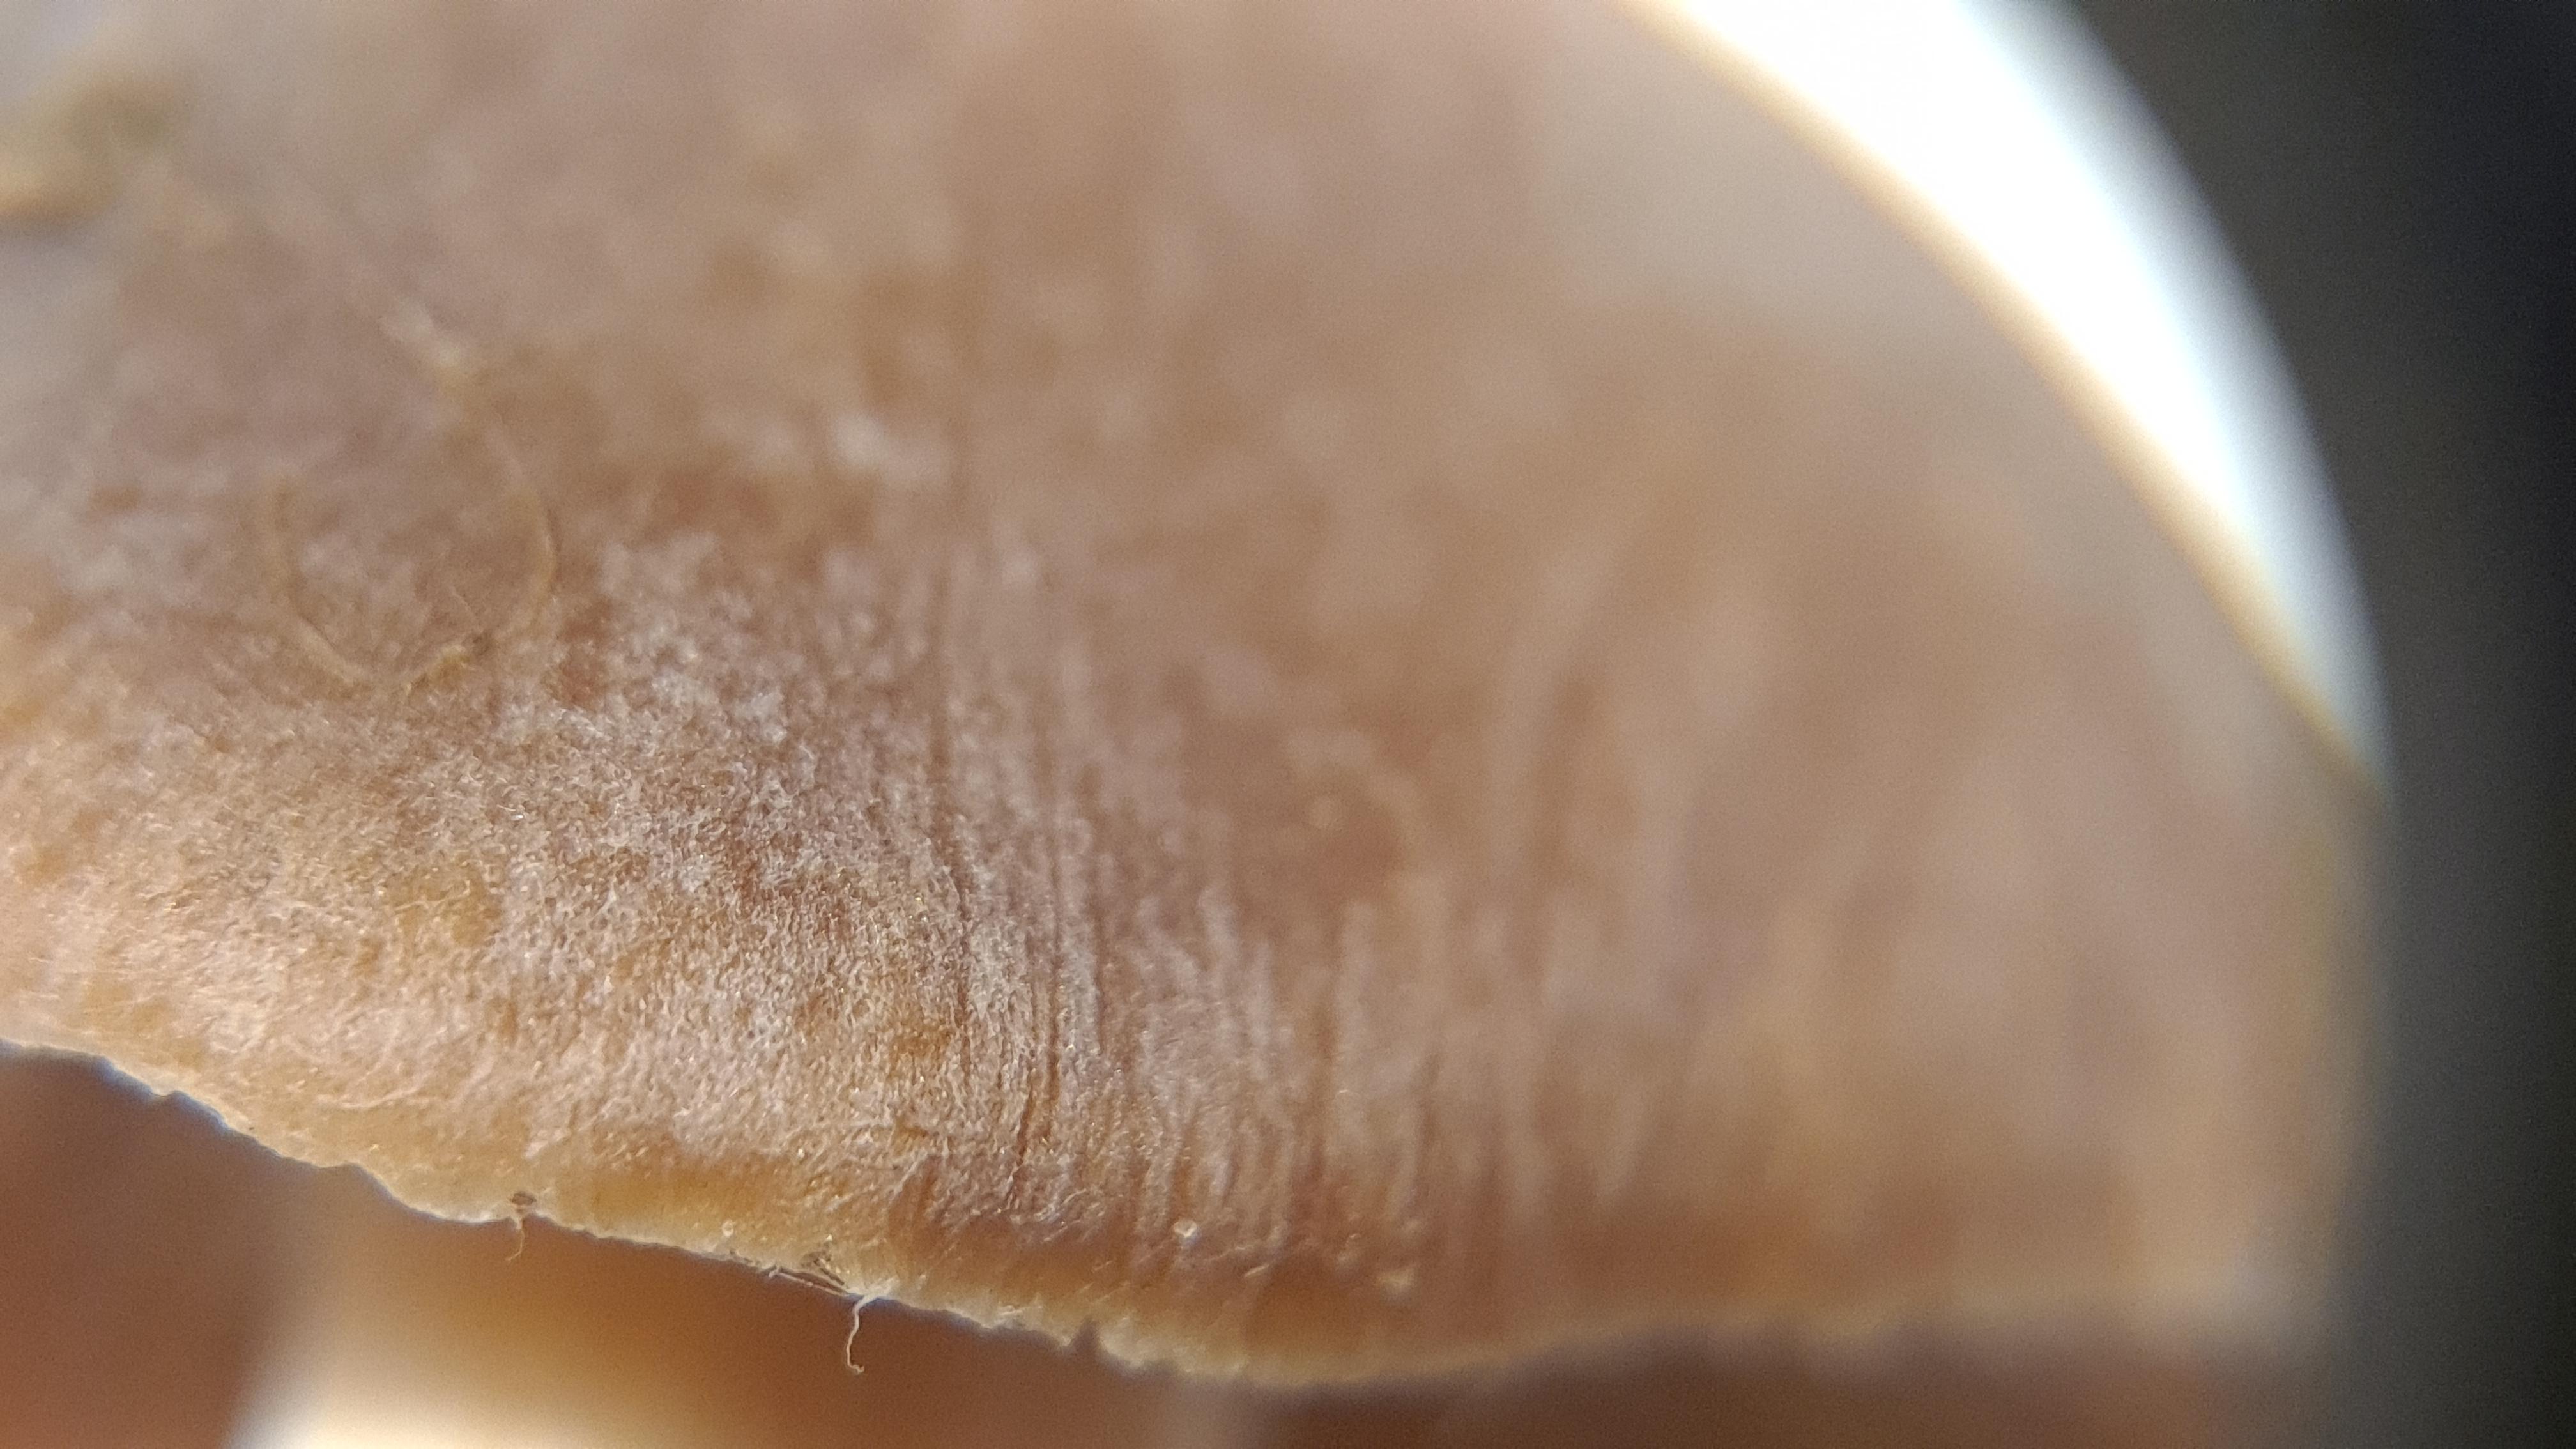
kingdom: Fungi
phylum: Basidiomycota
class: Agaricomycetes
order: Agaricales
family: Cortinariaceae
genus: Cortinarius
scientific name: Cortinarius
